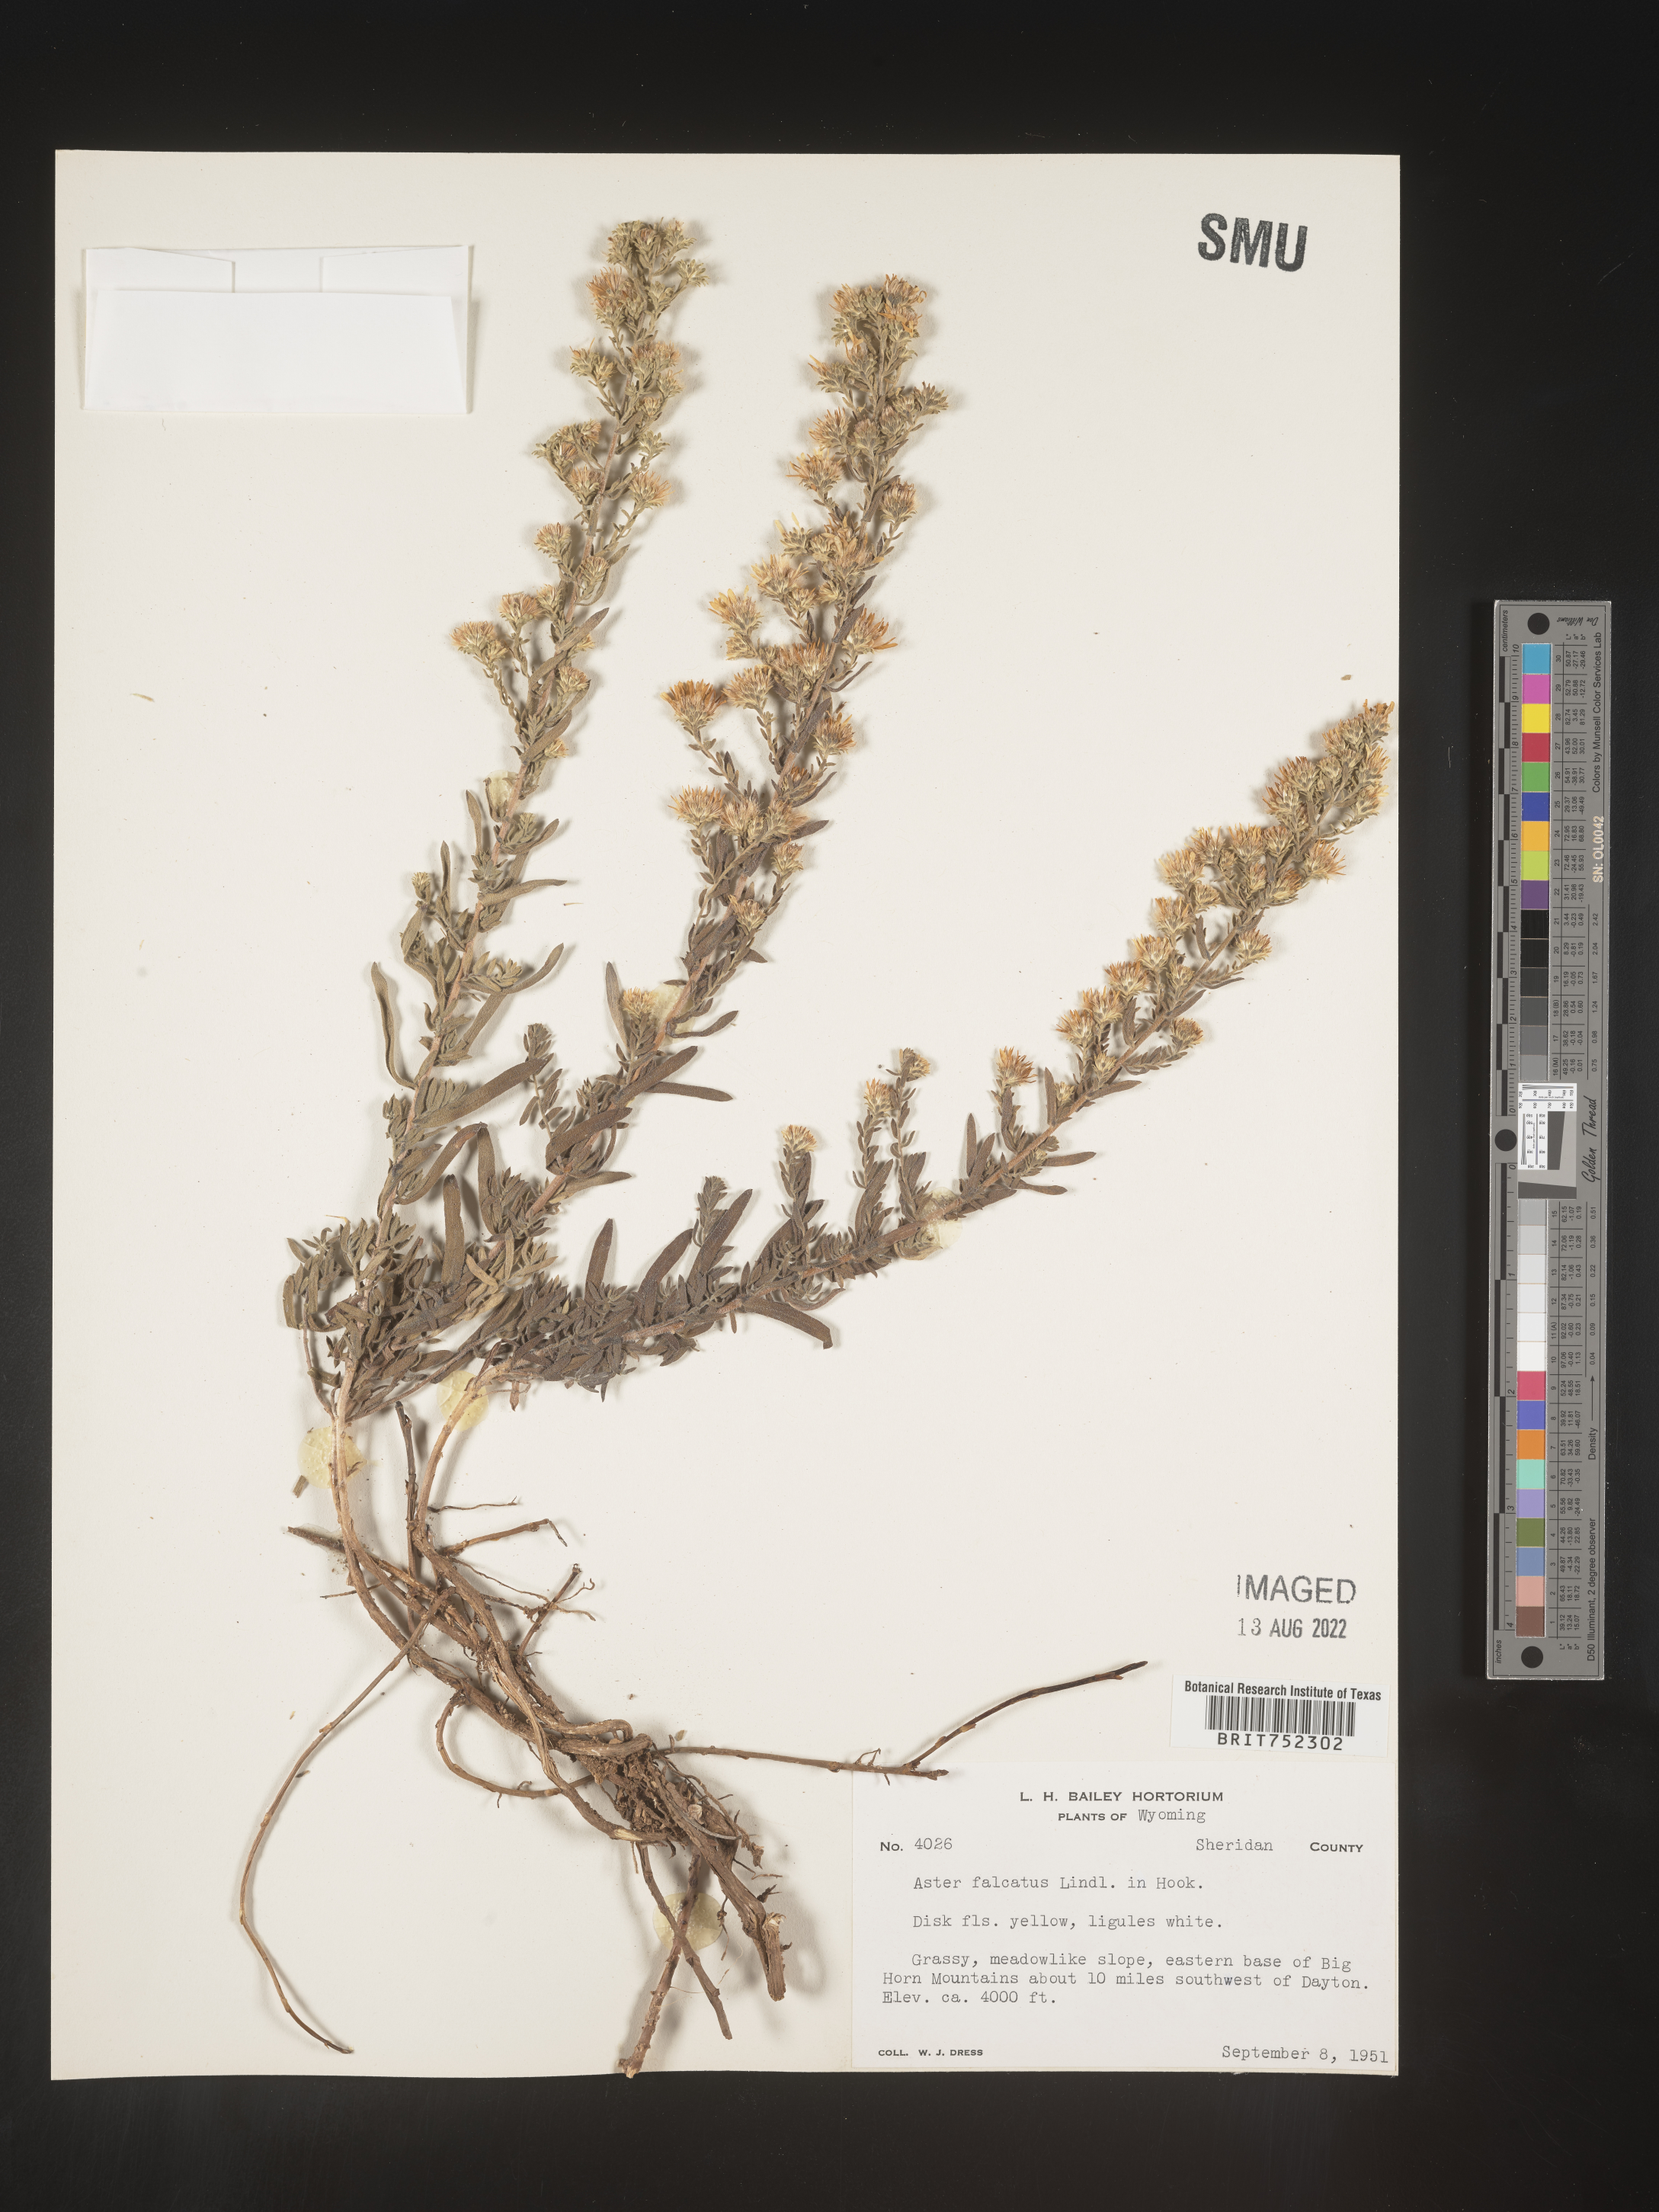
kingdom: Plantae
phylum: Tracheophyta
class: Magnoliopsida
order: Asterales
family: Asteraceae
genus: Symphyotrichum
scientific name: Symphyotrichum falcatum
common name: Creeping white prairie aster
